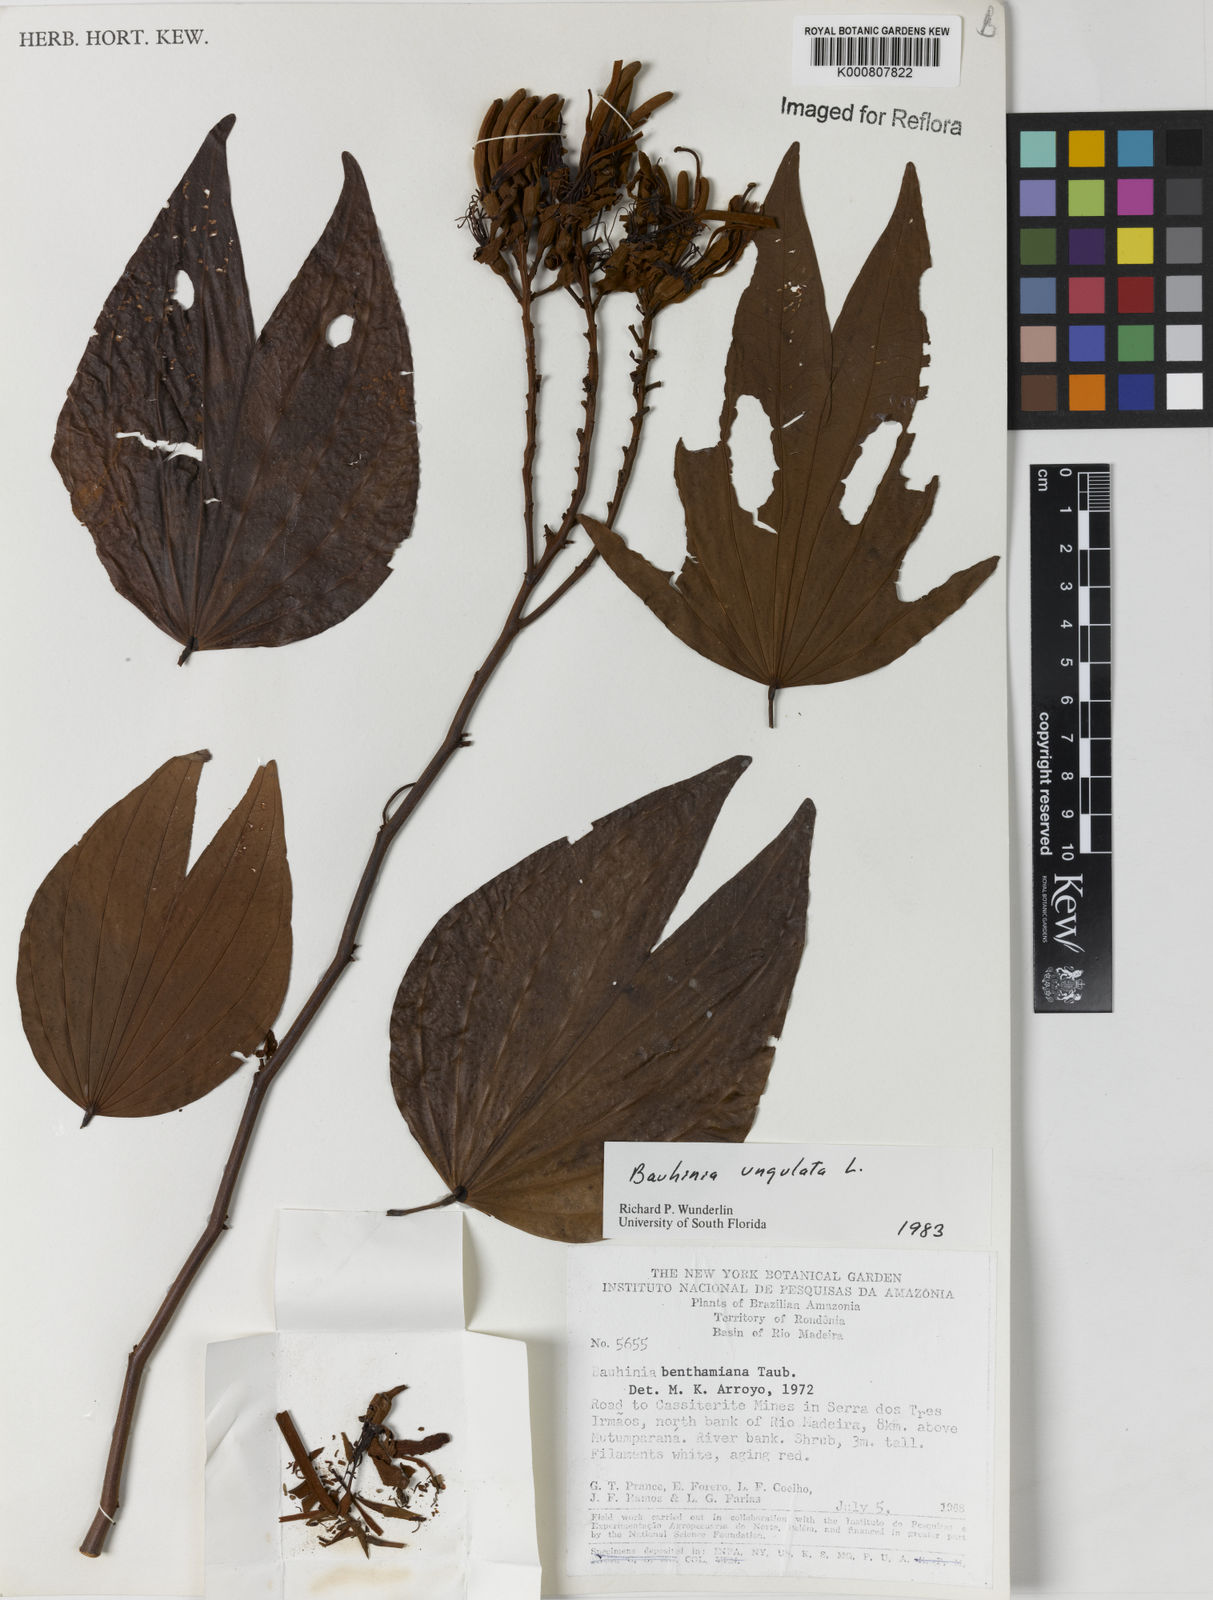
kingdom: Plantae
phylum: Tracheophyta
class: Magnoliopsida
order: Fabales
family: Fabaceae
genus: Bauhinia
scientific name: Bauhinia ungulata
